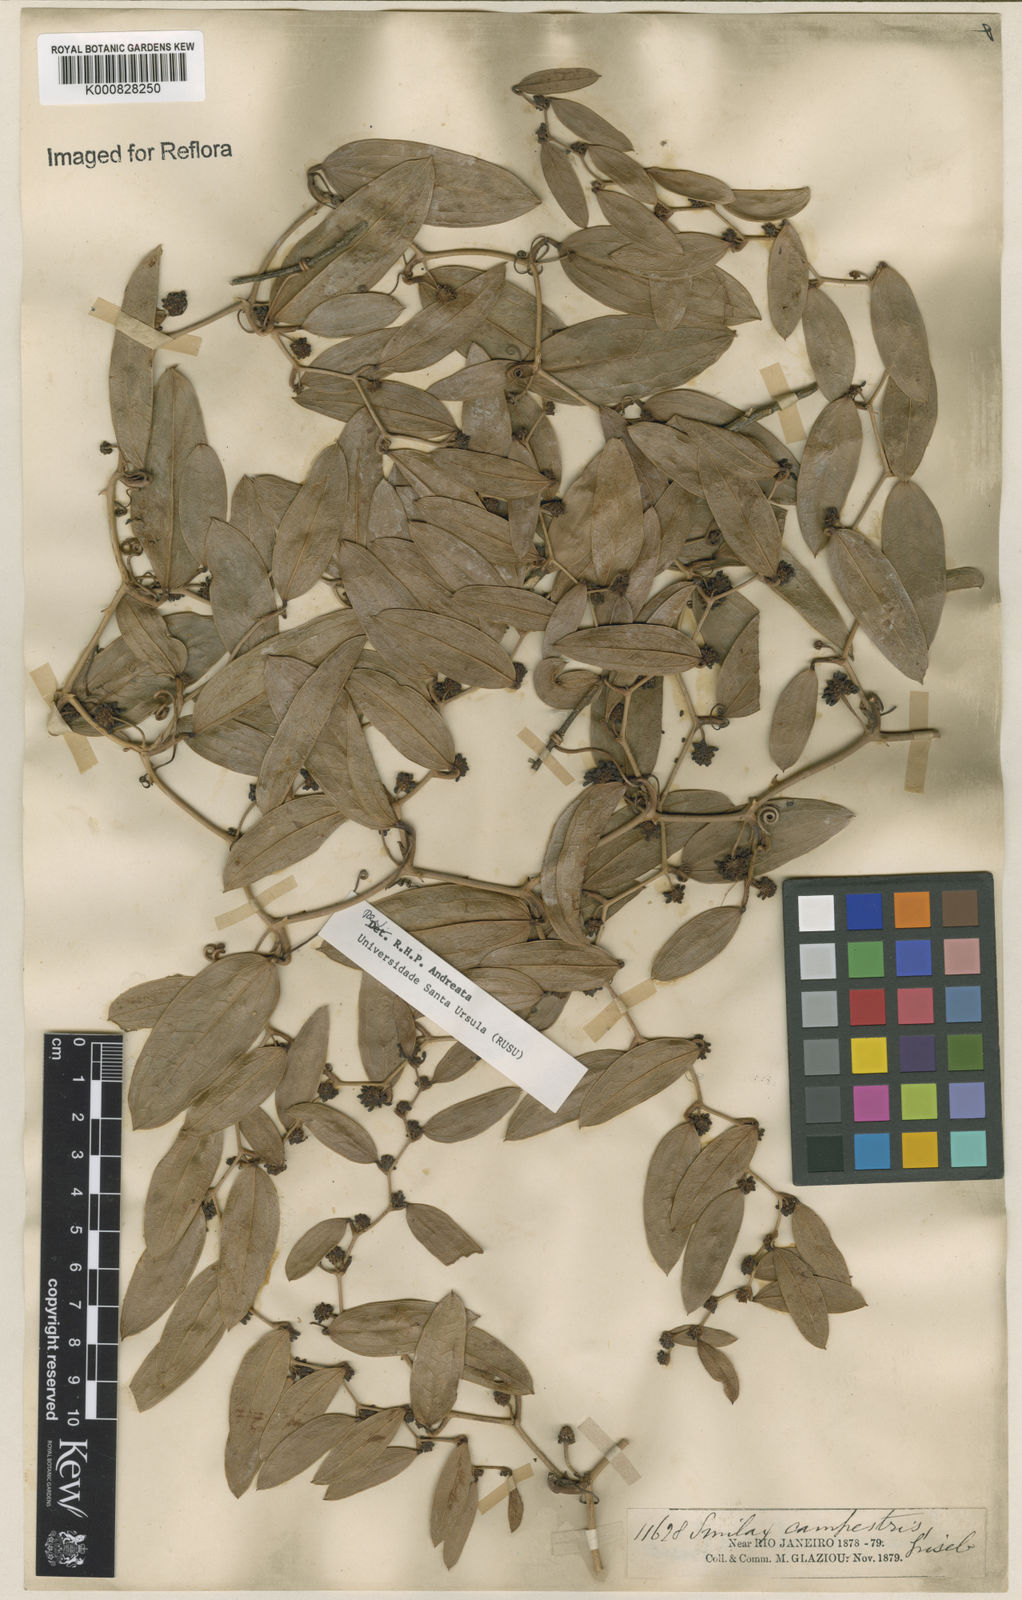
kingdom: Plantae
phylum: Tracheophyta
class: Liliopsida
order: Liliales
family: Smilacaceae
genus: Smilax
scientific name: Smilax campestris
